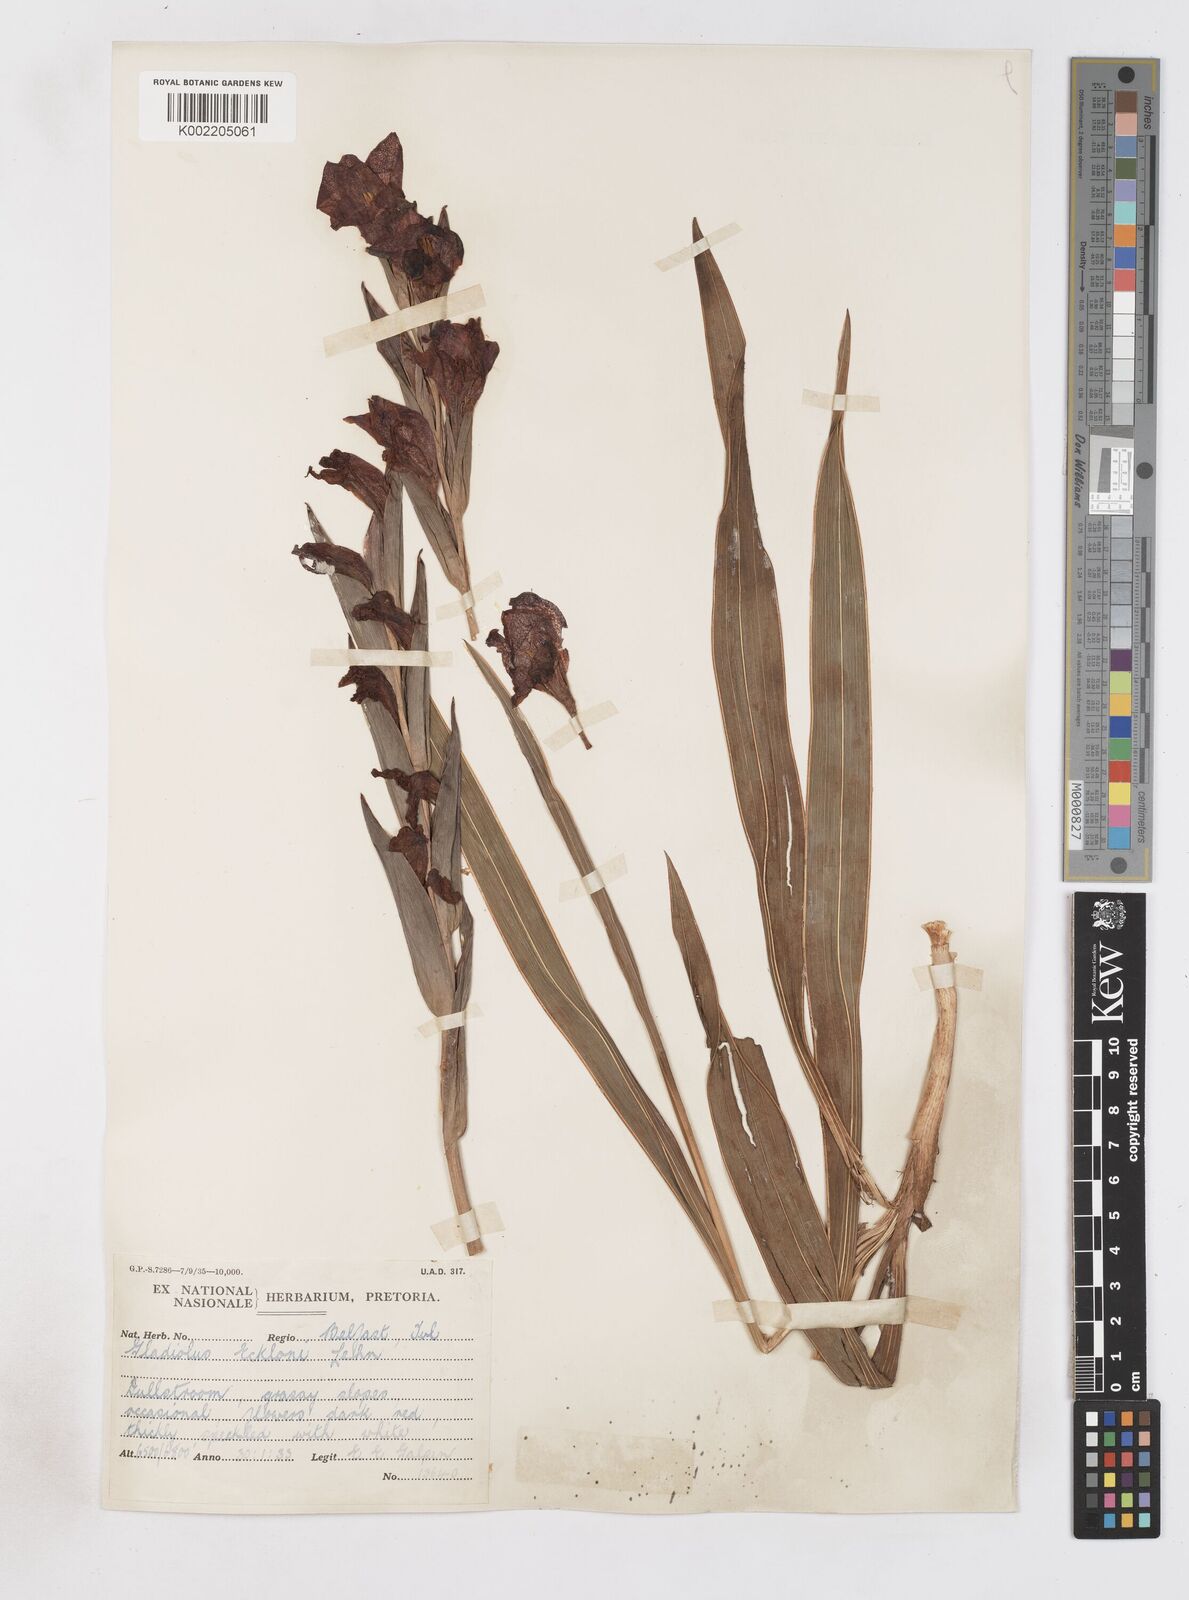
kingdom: Plantae
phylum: Tracheophyta
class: Liliopsida
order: Asparagales
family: Iridaceae
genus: Gladiolus
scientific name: Gladiolus ecklonii
